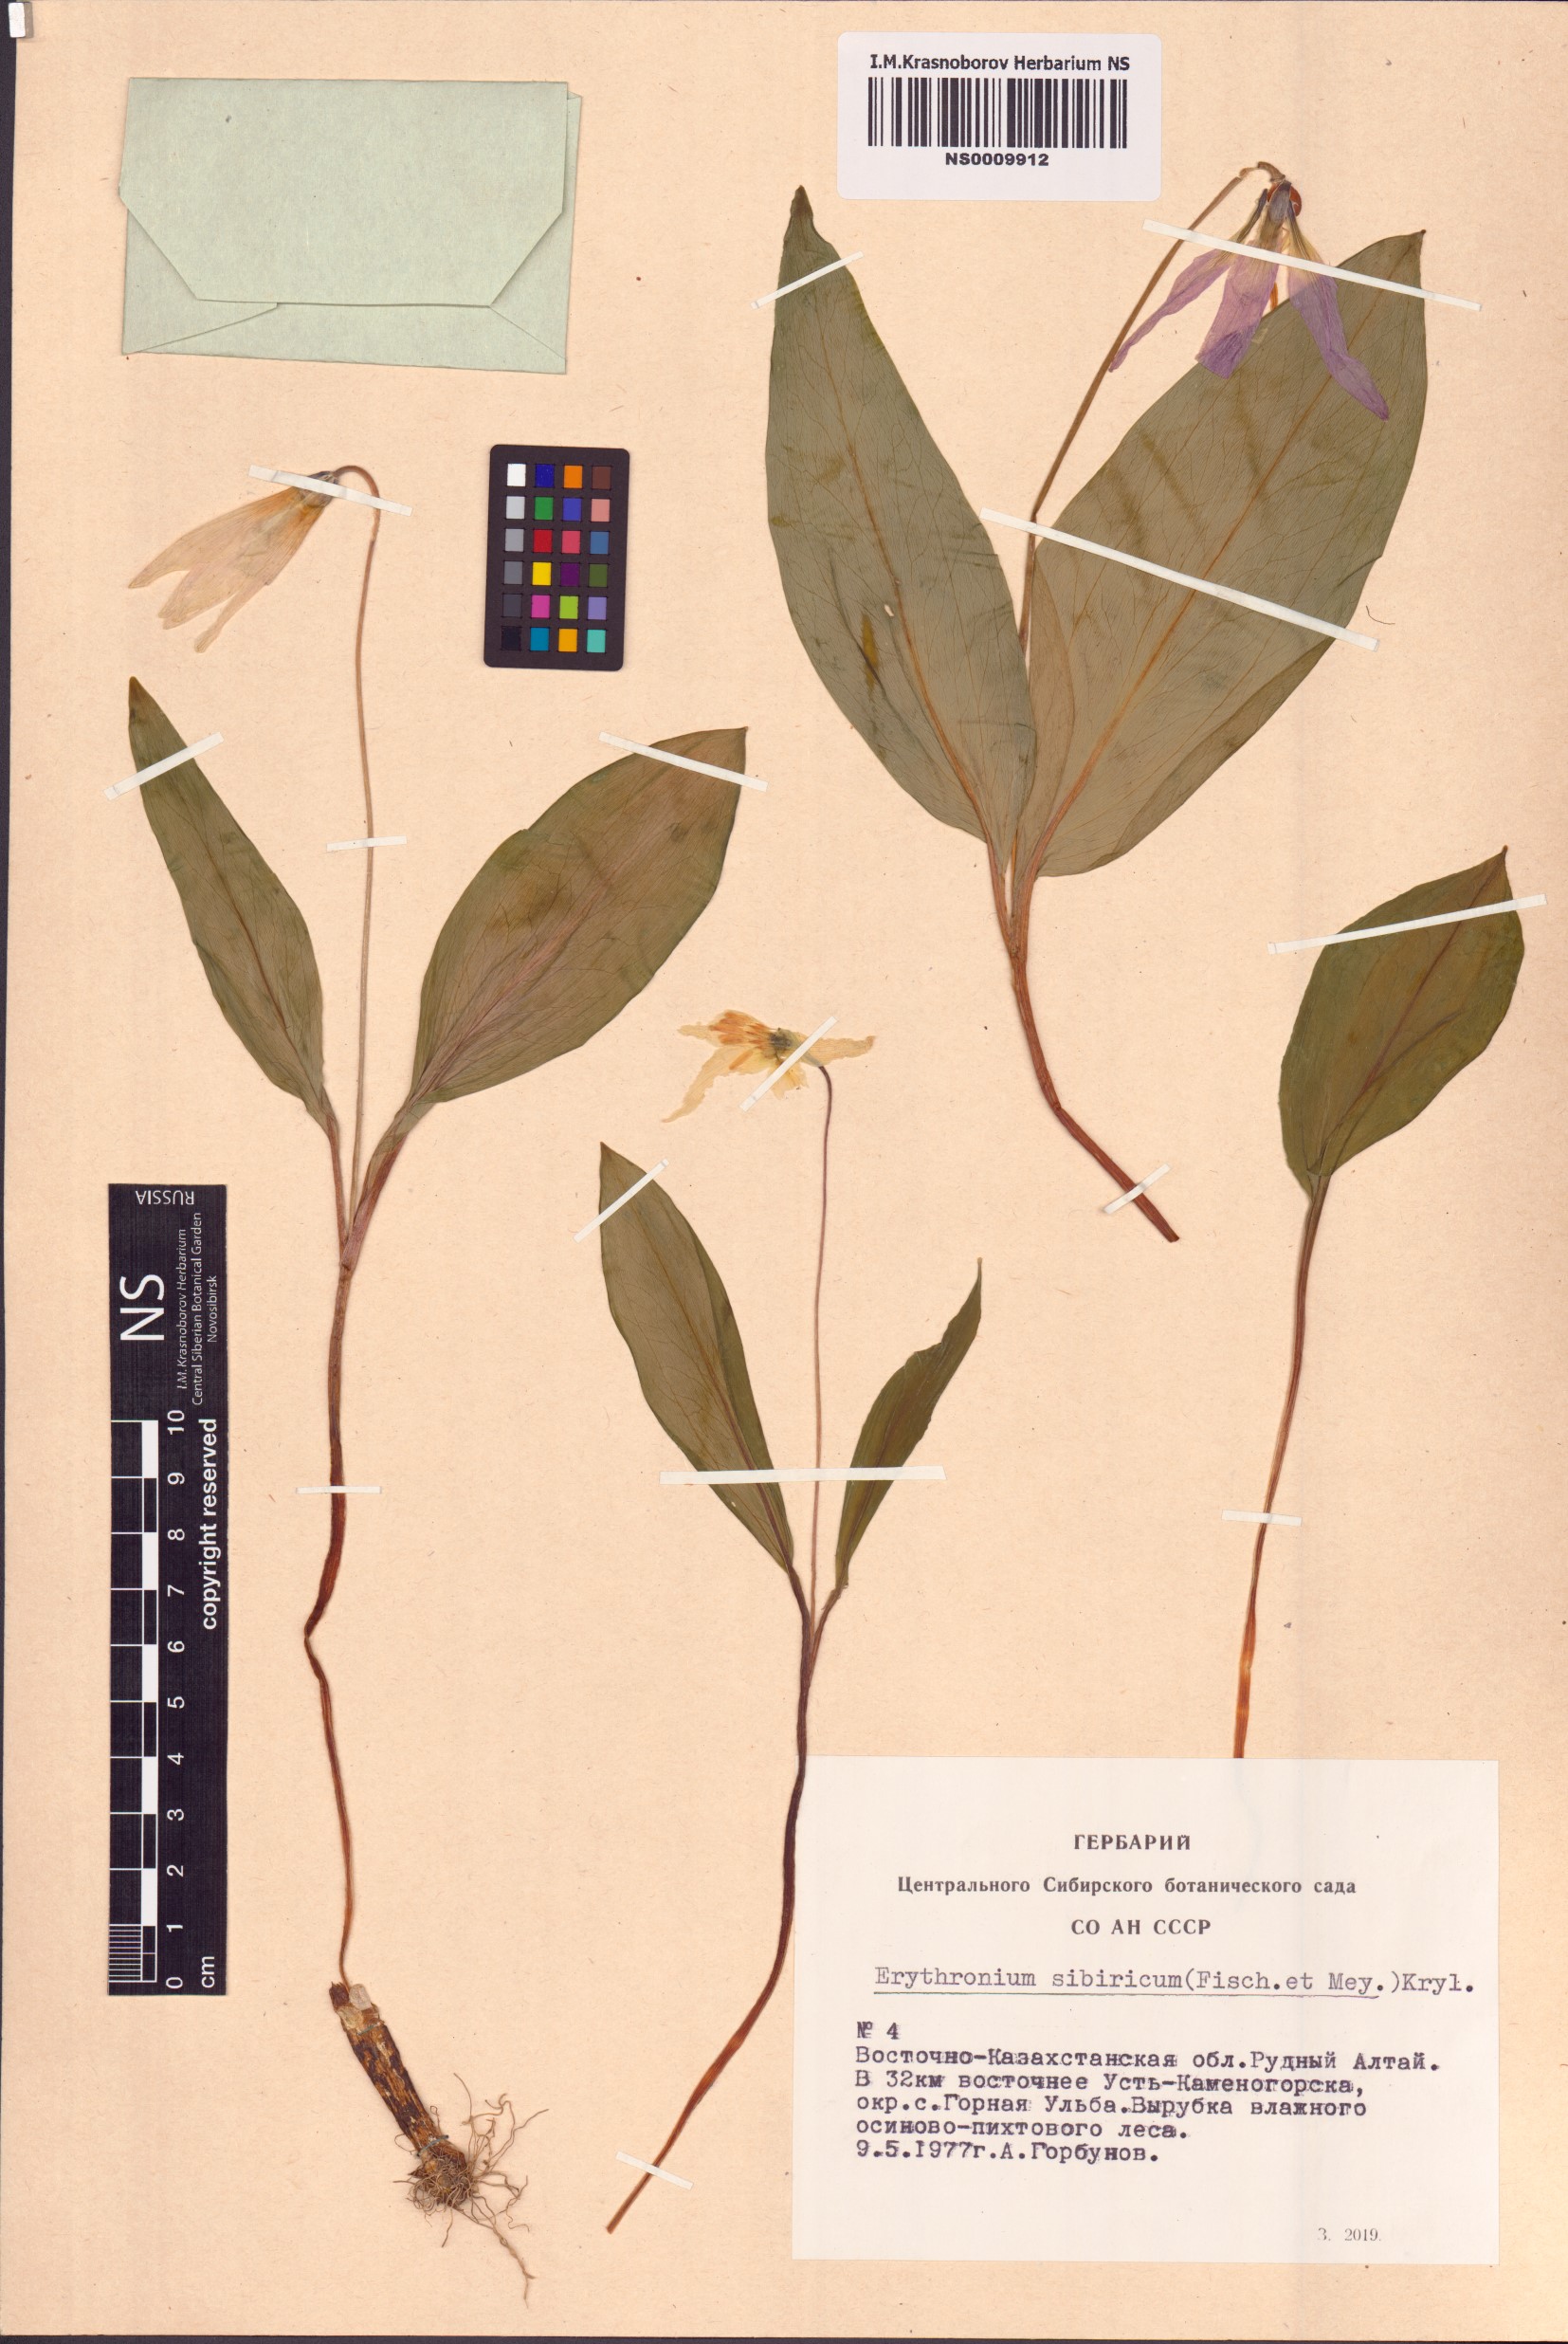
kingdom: Plantae
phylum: Tracheophyta
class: Liliopsida
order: Liliales
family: Liliaceae
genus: Erythronium
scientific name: Erythronium sibiricum
